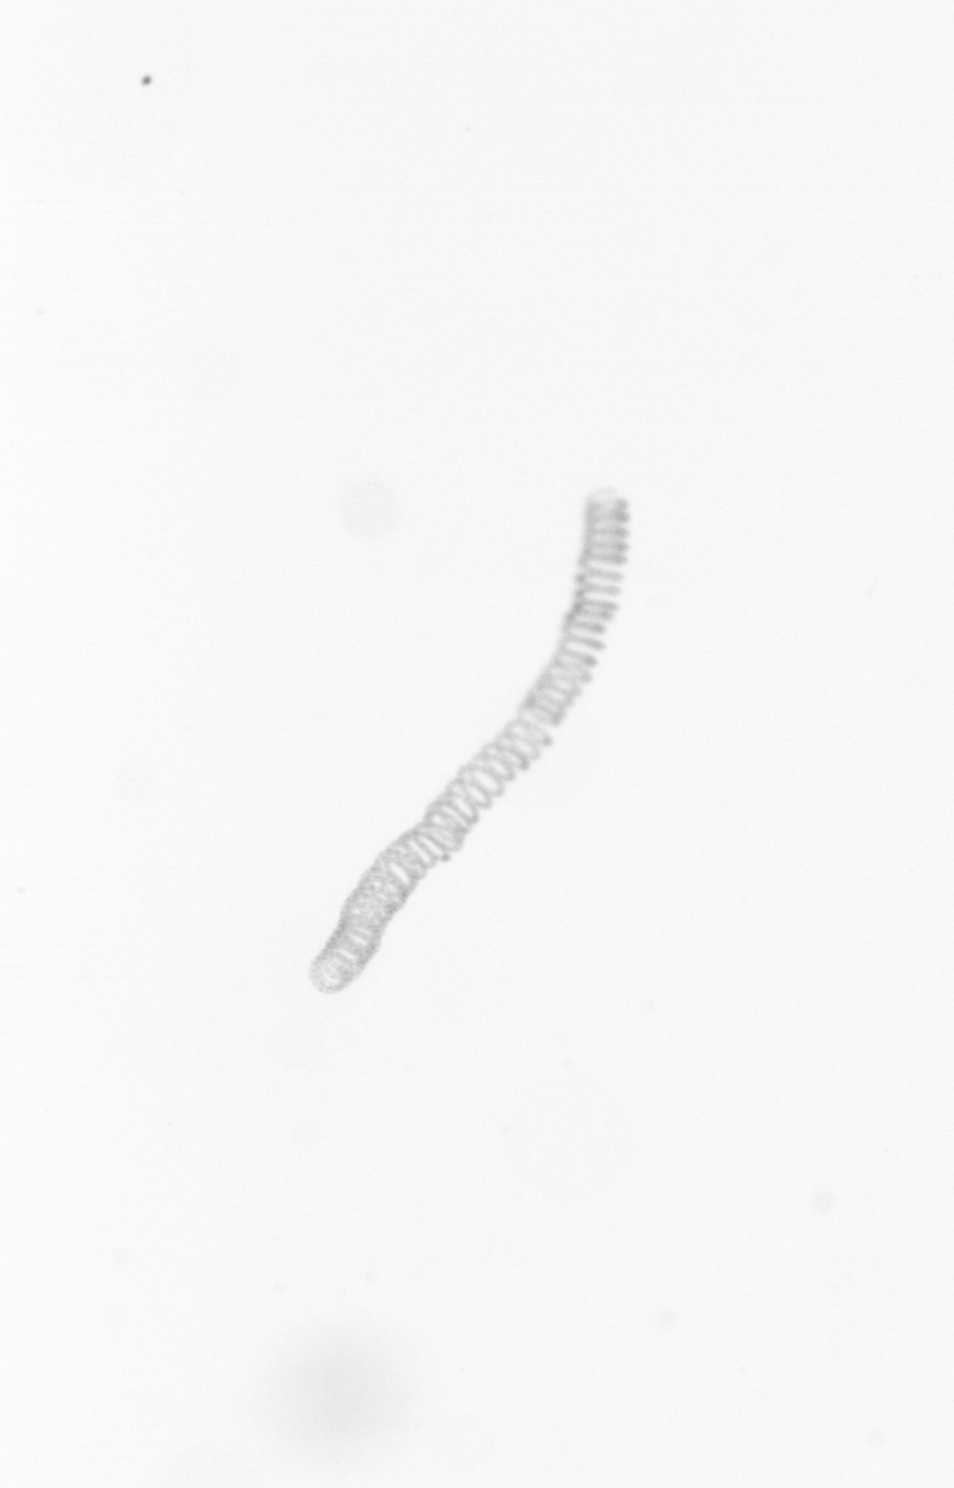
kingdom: Chromista
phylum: Ochrophyta
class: Bacillariophyceae
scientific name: Bacillariophyceae
